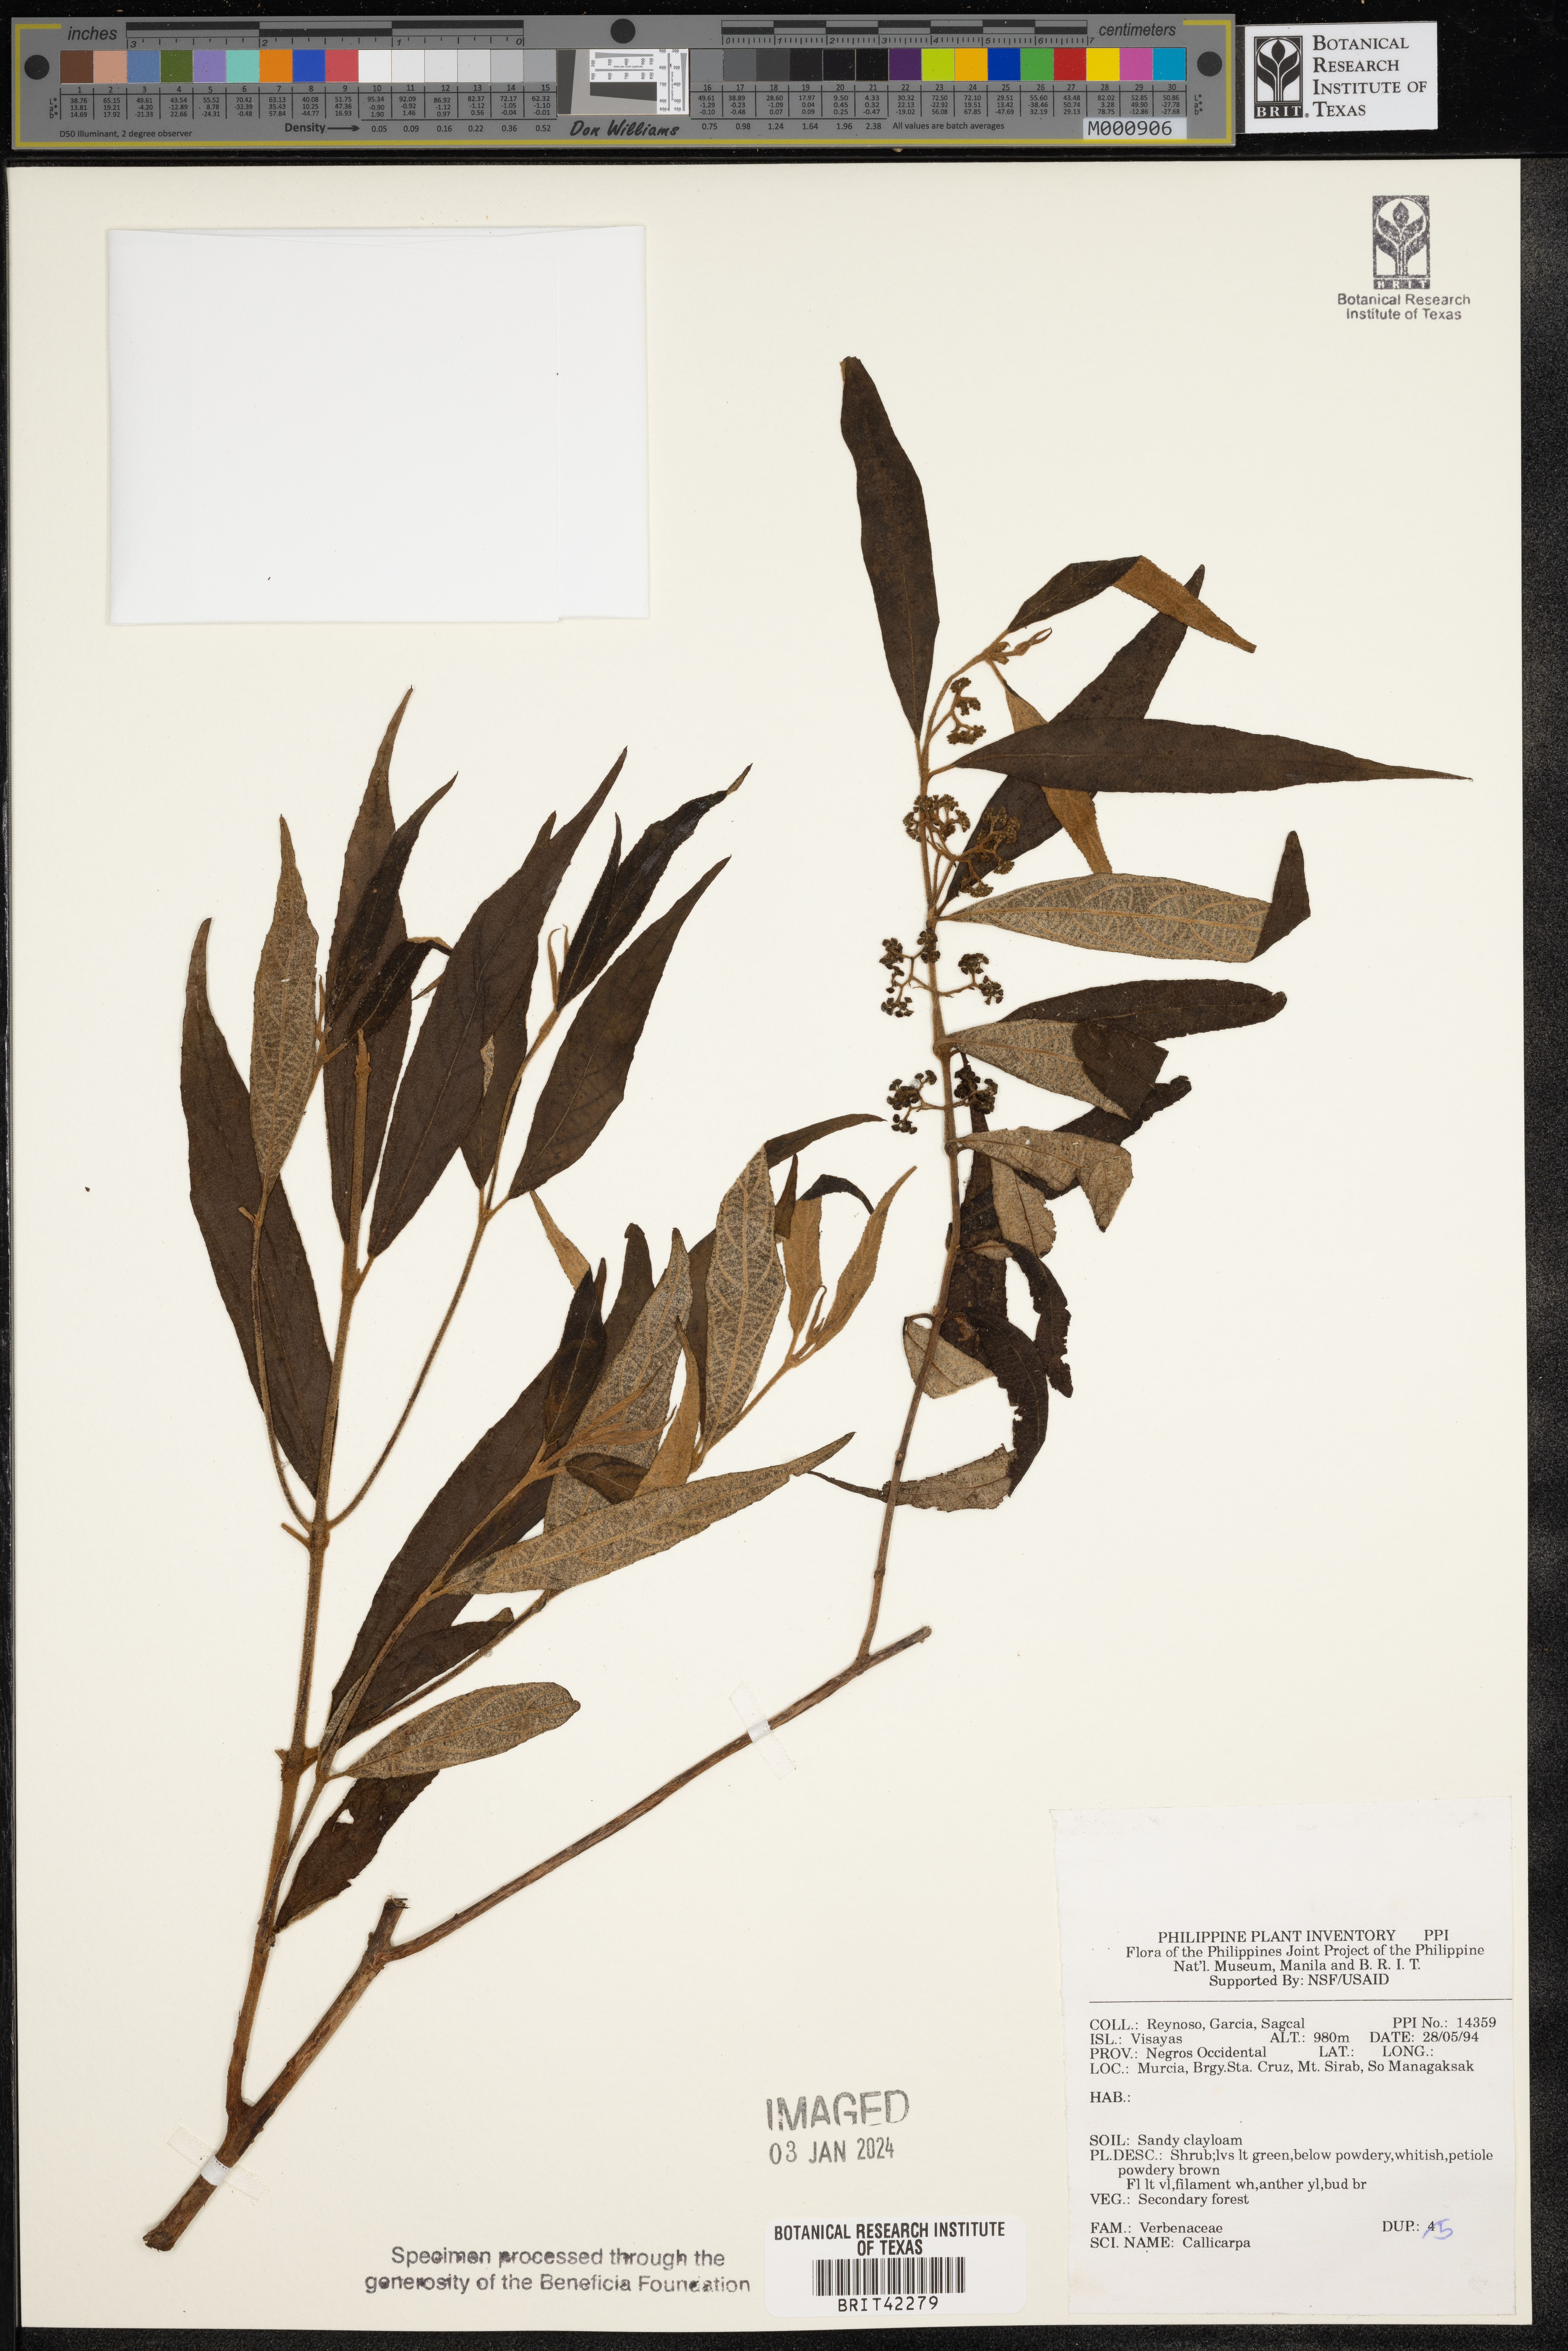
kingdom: Plantae
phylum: Tracheophyta
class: Magnoliopsida
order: Lamiales
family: Lamiaceae
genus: Callicarpa
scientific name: Callicarpa
